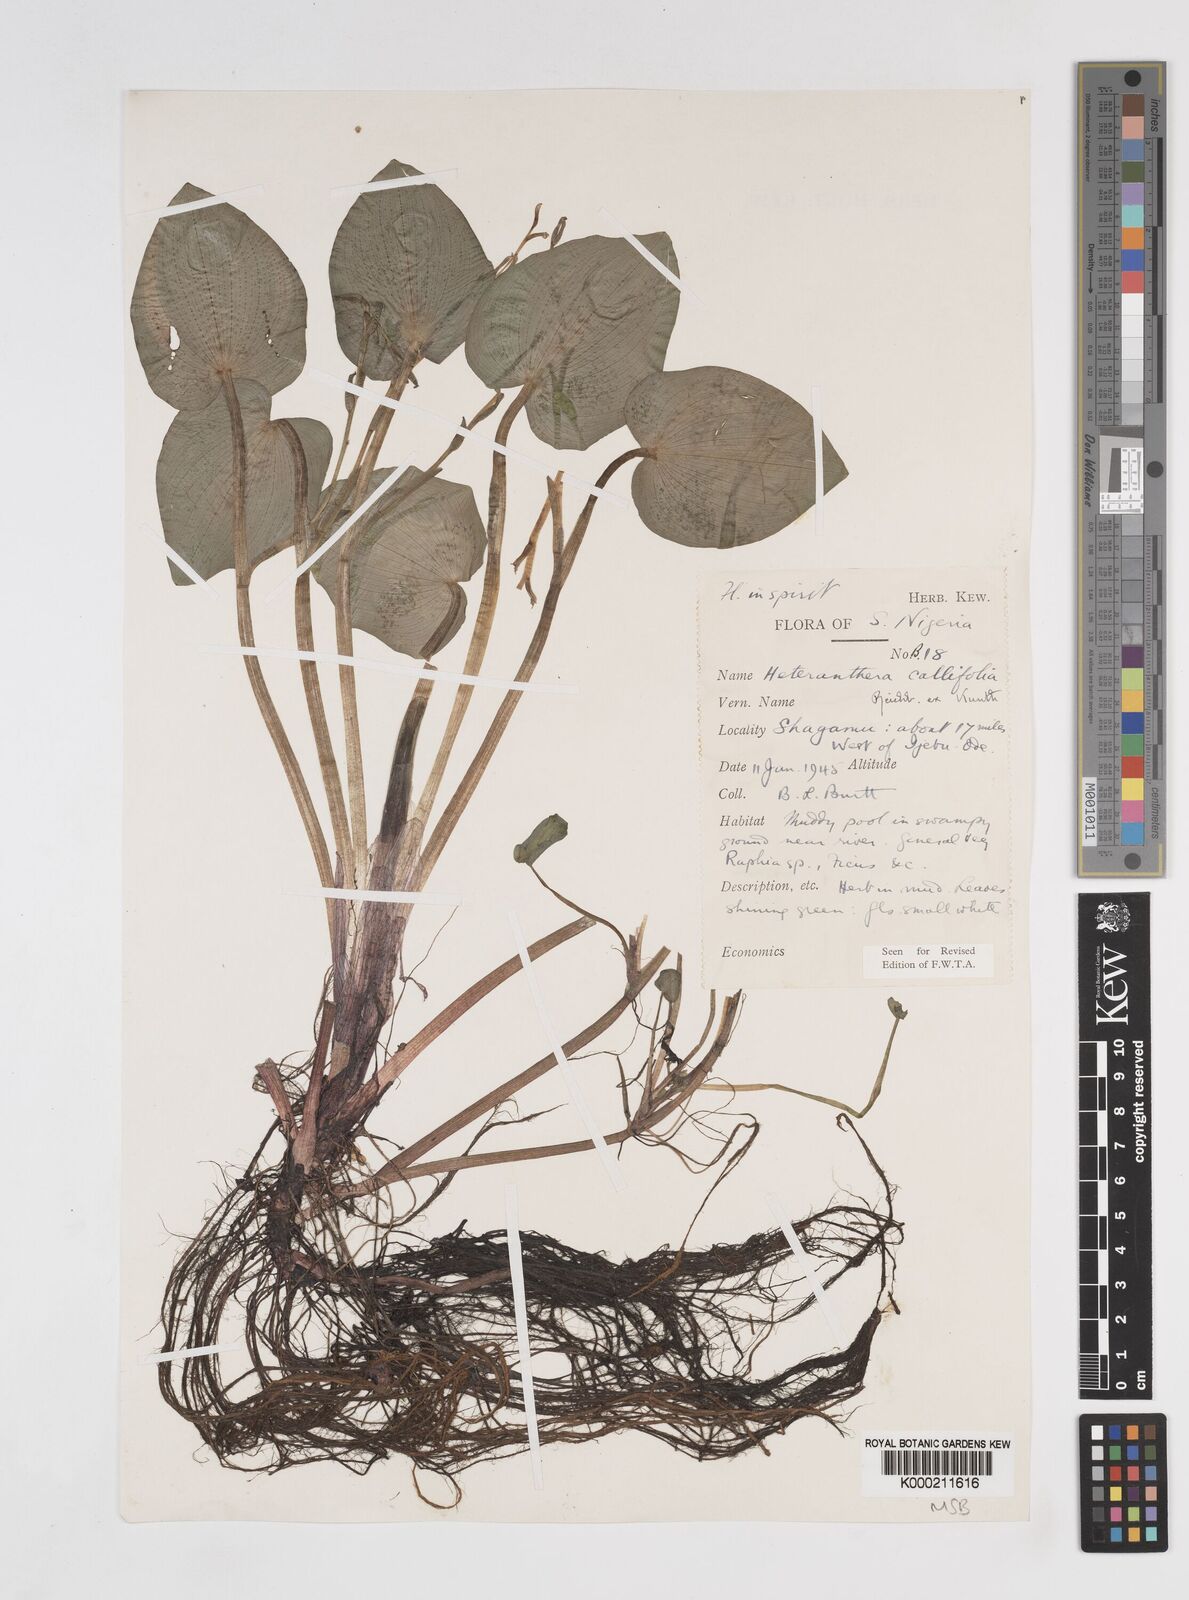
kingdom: Plantae
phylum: Tracheophyta
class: Liliopsida
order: Commelinales
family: Pontederiaceae
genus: Heteranthera
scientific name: Heteranthera callifolia
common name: Mud plantain
